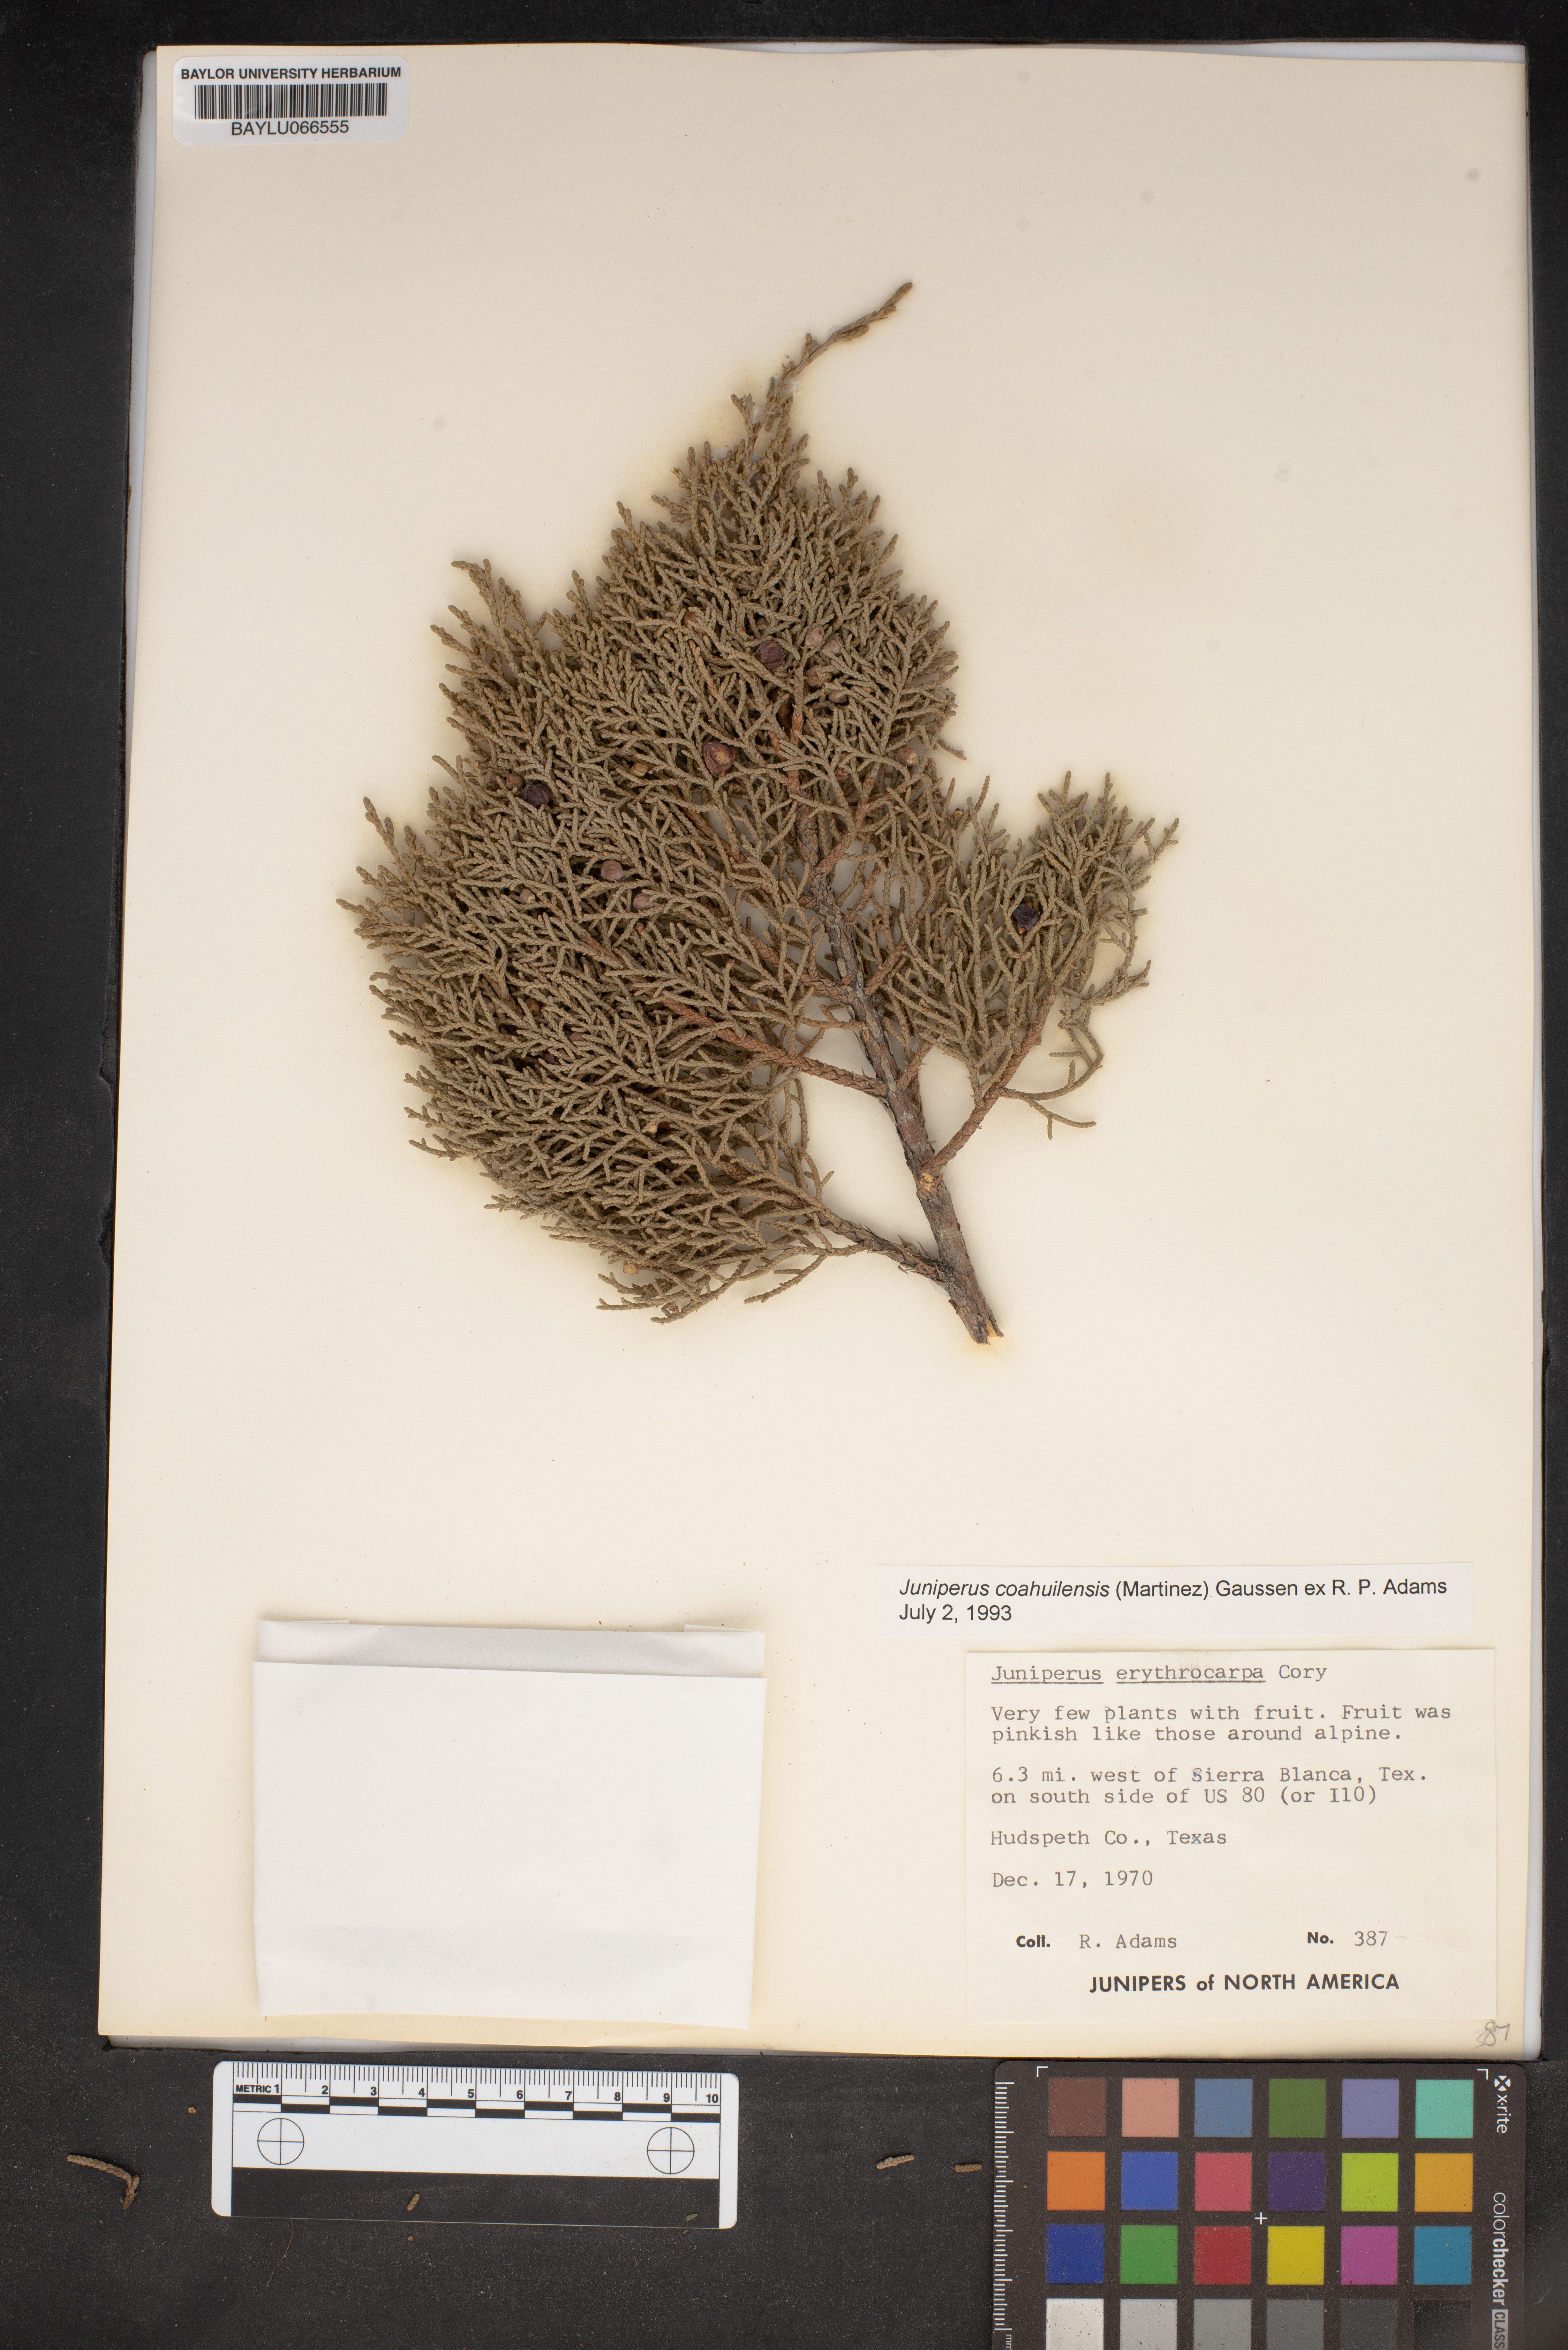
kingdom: Plantae
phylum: Tracheophyta
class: Pinopsida
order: Pinales
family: Cupressaceae
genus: Juniperus
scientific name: Juniperus coahuilensis
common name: Roseberry
